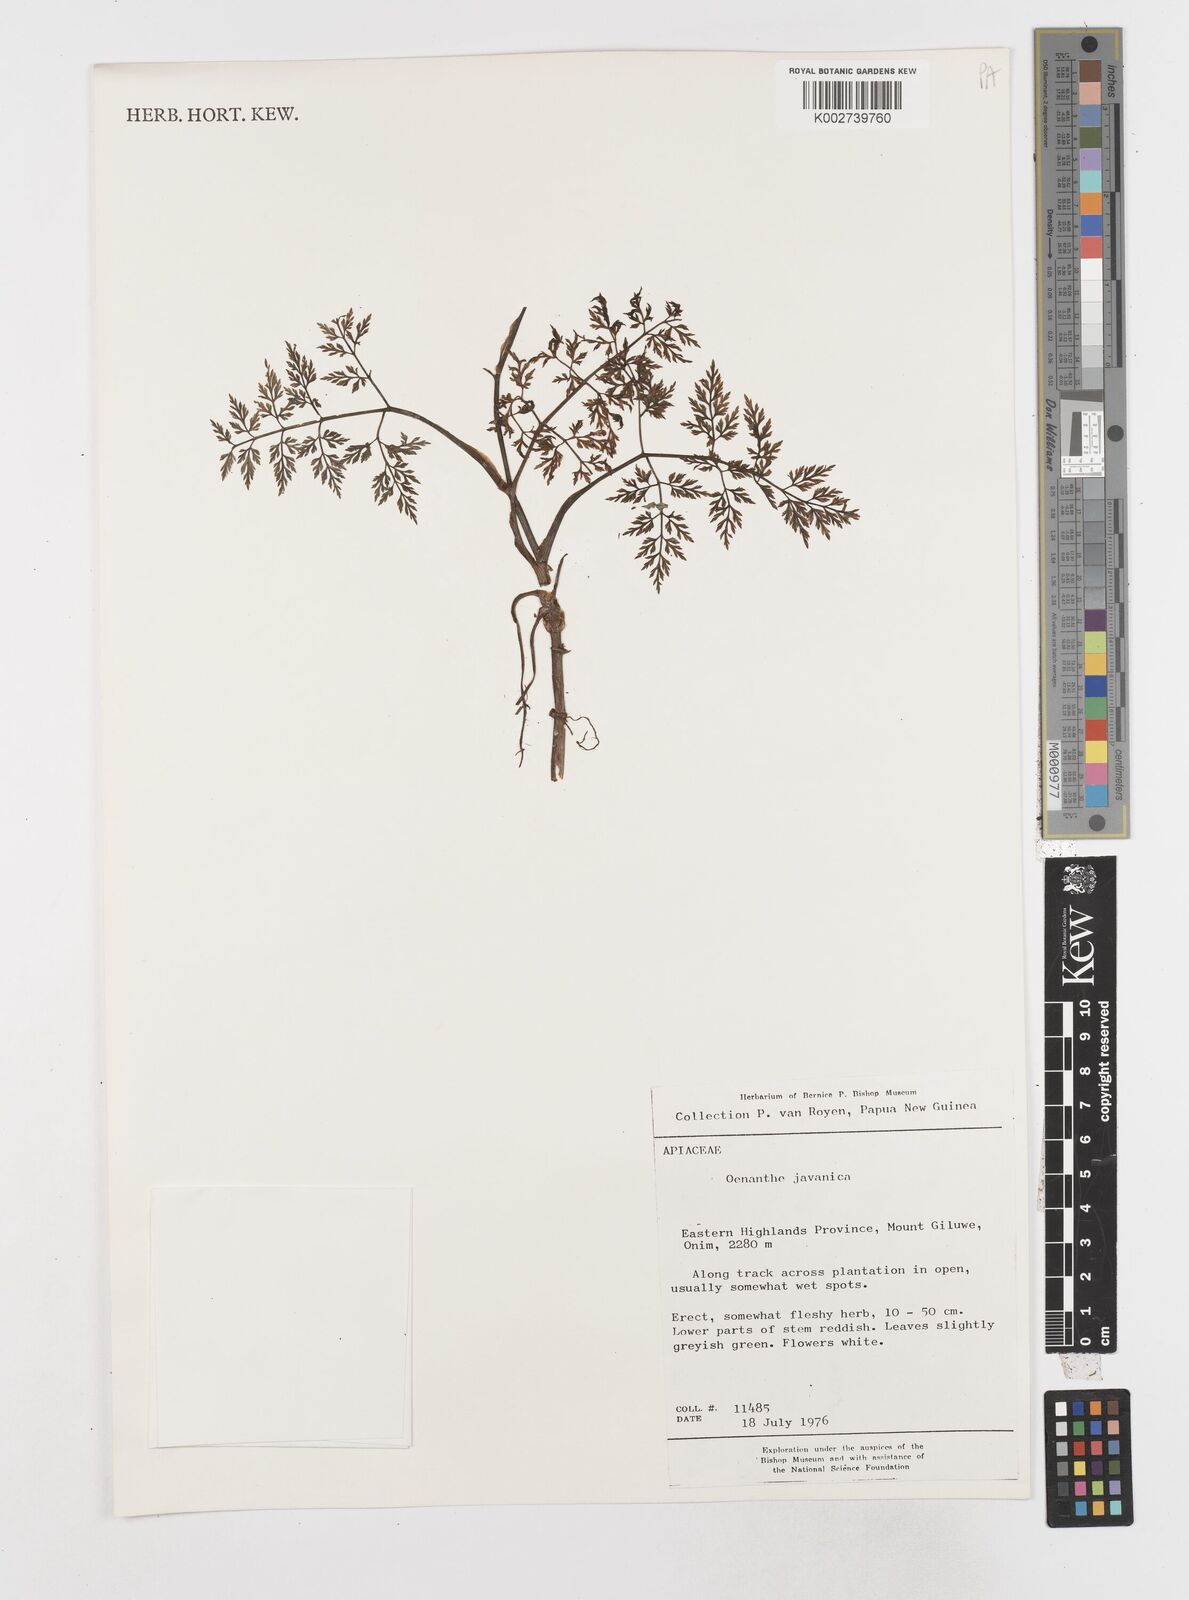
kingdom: Plantae
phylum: Tracheophyta
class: Magnoliopsida
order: Apiales
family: Apiaceae
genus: Oenanthe
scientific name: Oenanthe javanica
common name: Java water-dropwort
